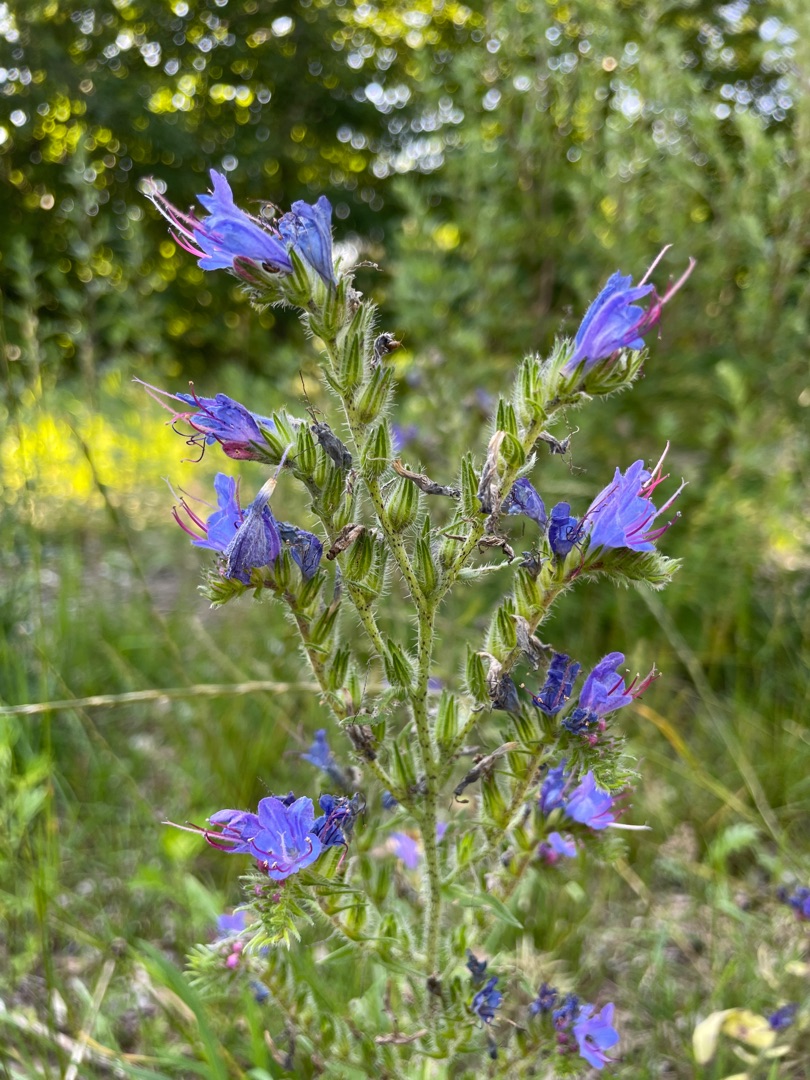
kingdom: Plantae
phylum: Tracheophyta
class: Magnoliopsida
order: Boraginales
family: Boraginaceae
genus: Echium
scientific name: Echium vulgare
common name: Slangehoved
